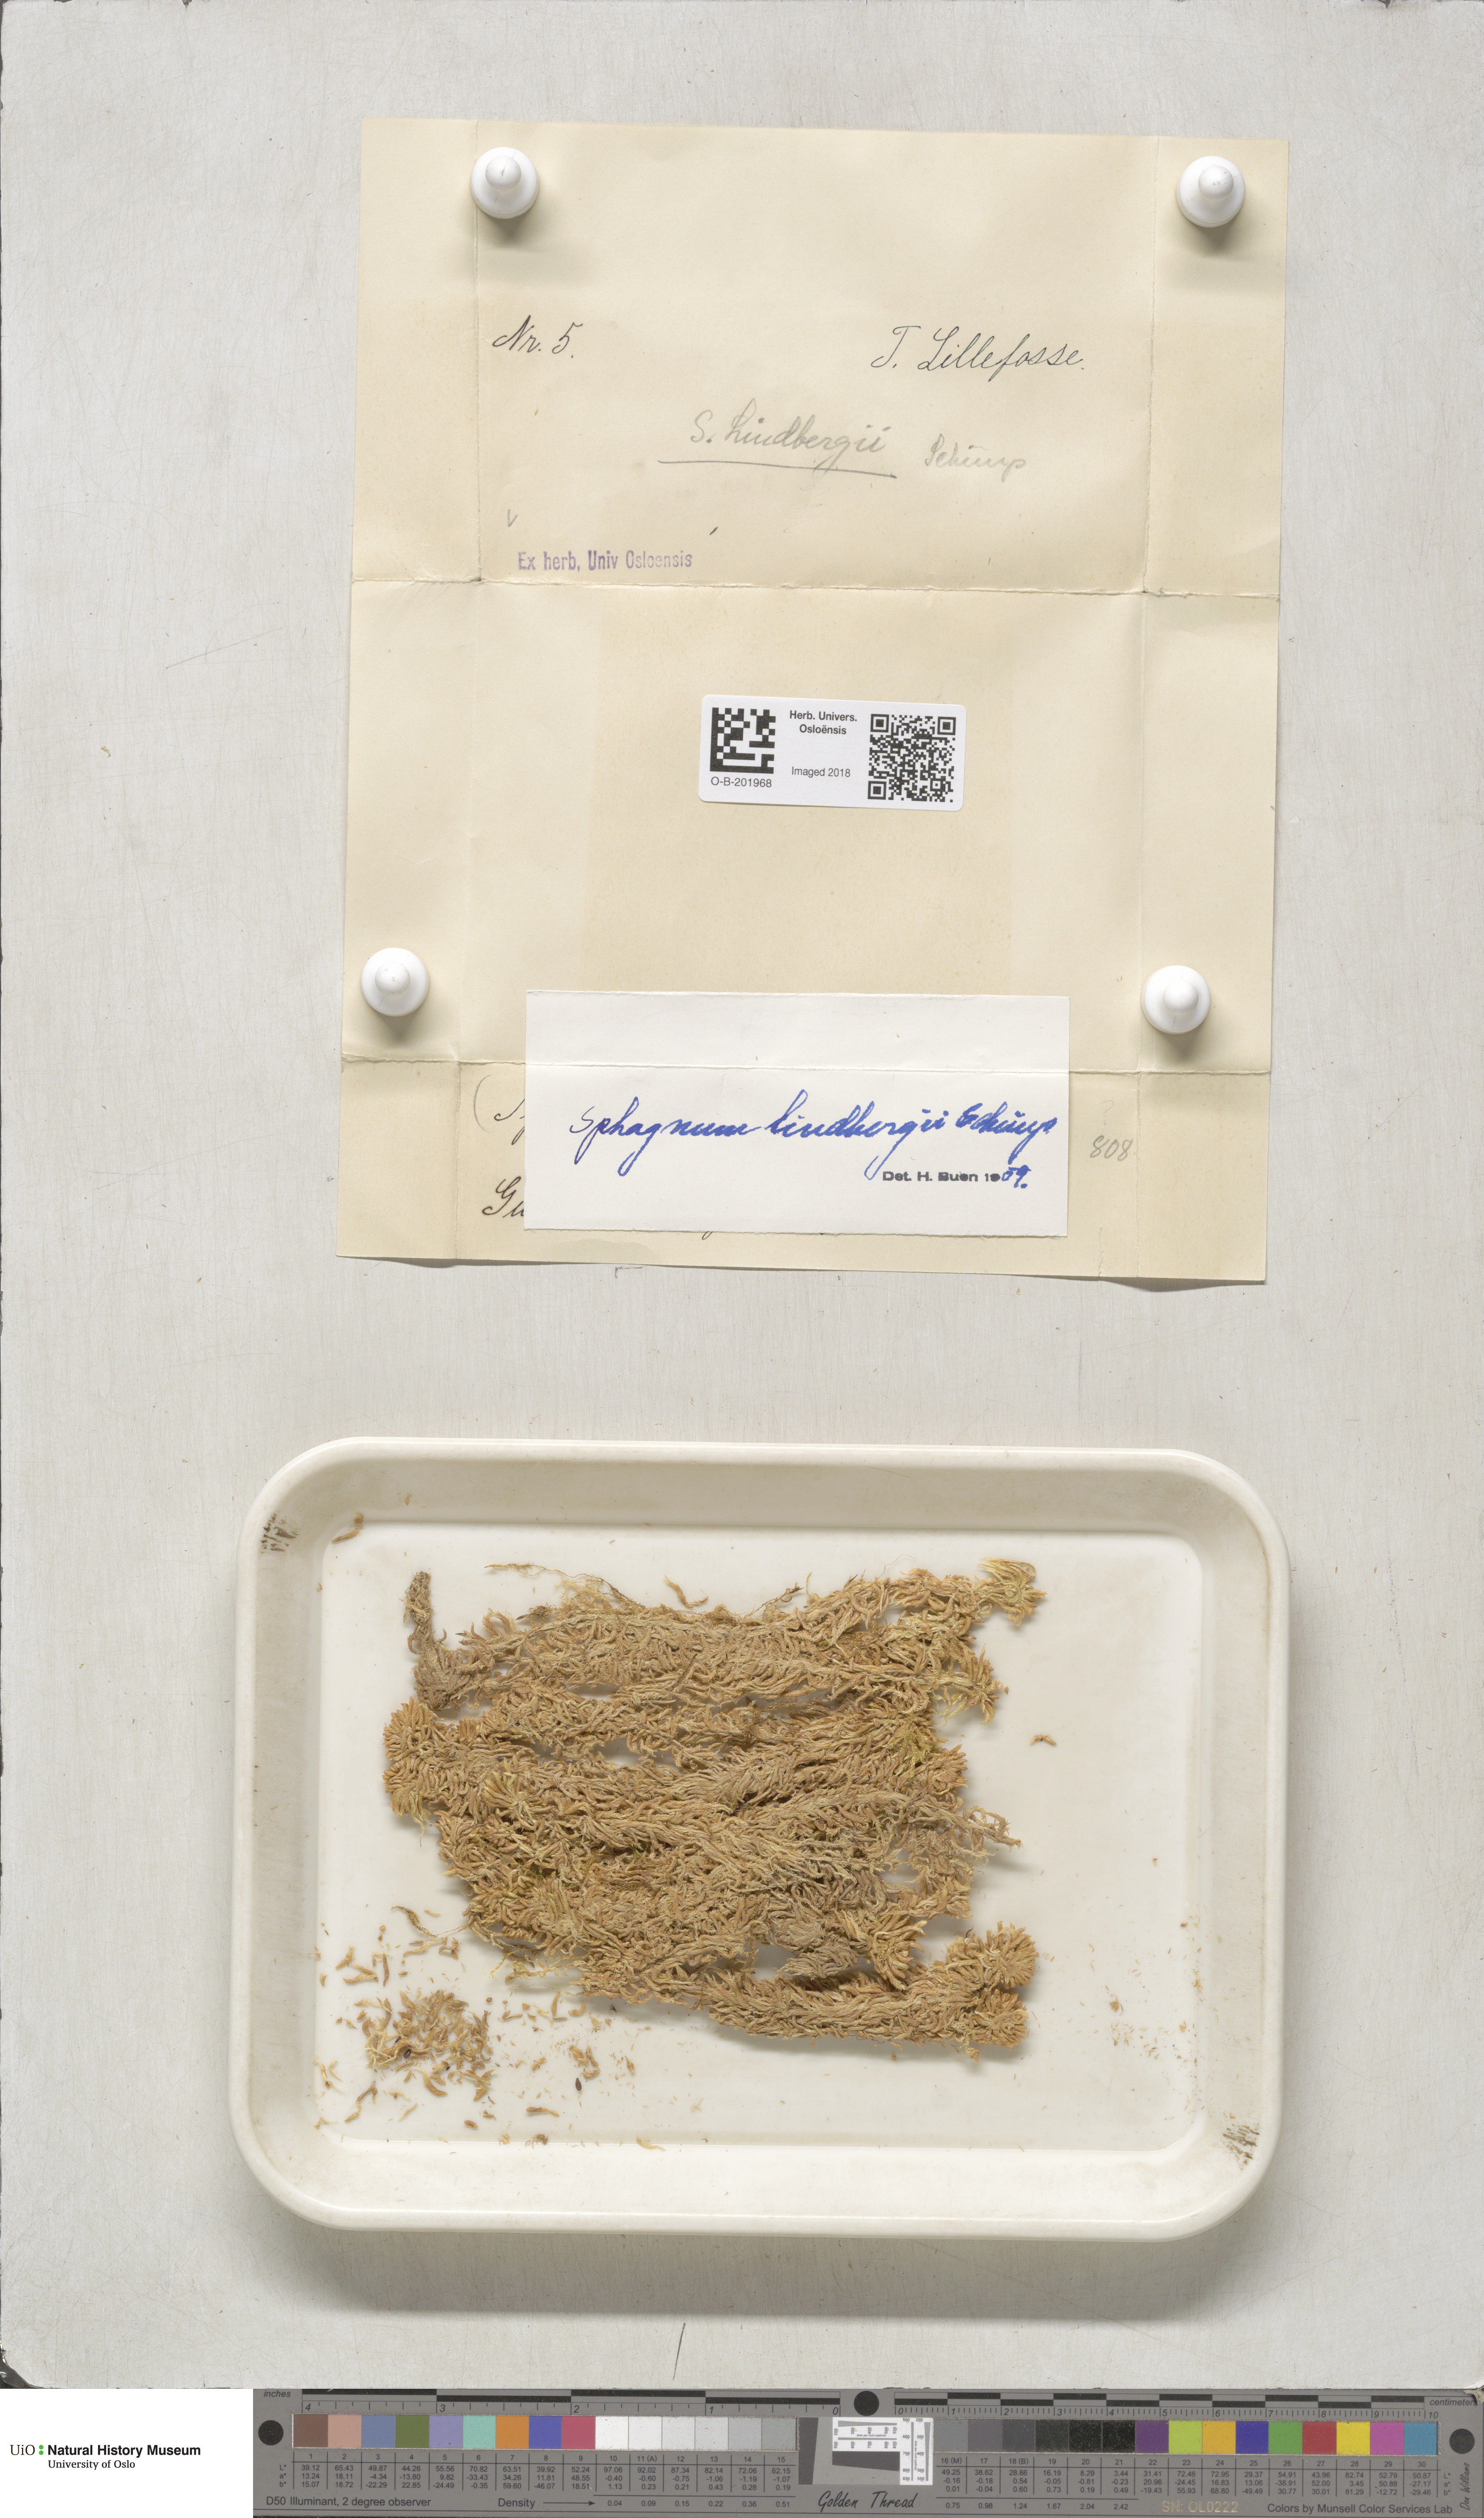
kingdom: Plantae
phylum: Bryophyta
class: Sphagnopsida
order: Sphagnales
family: Sphagnaceae
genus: Sphagnum
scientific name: Sphagnum lindbergii
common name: Lindberg's peat moss
